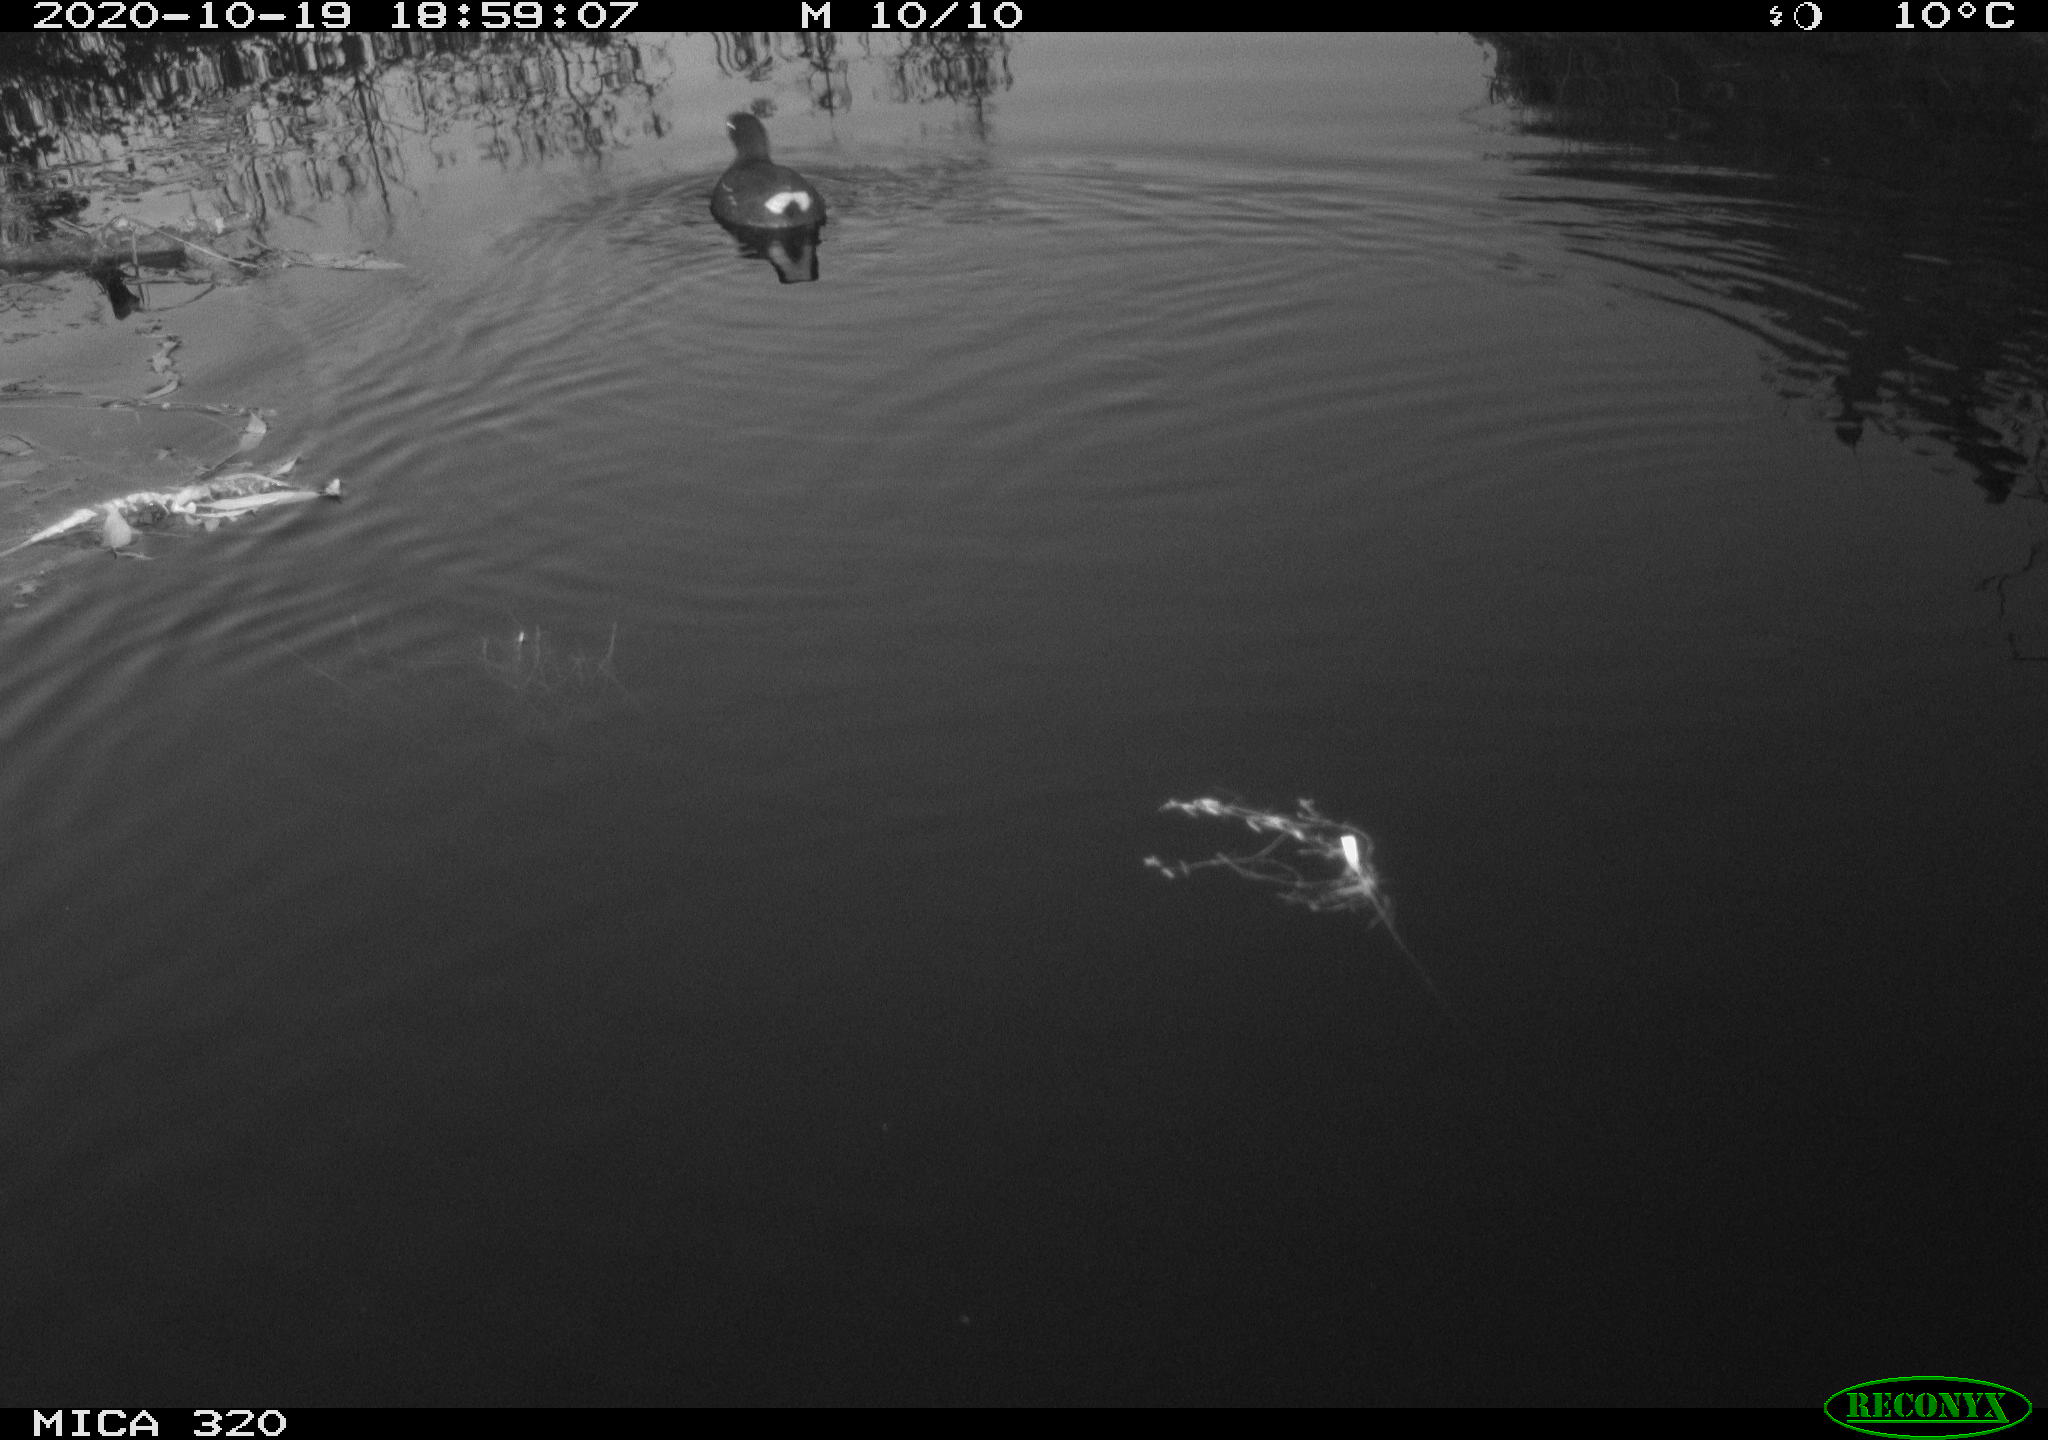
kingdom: Animalia
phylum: Chordata
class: Aves
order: Gruiformes
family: Rallidae
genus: Gallinula
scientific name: Gallinula chloropus
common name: Common moorhen
